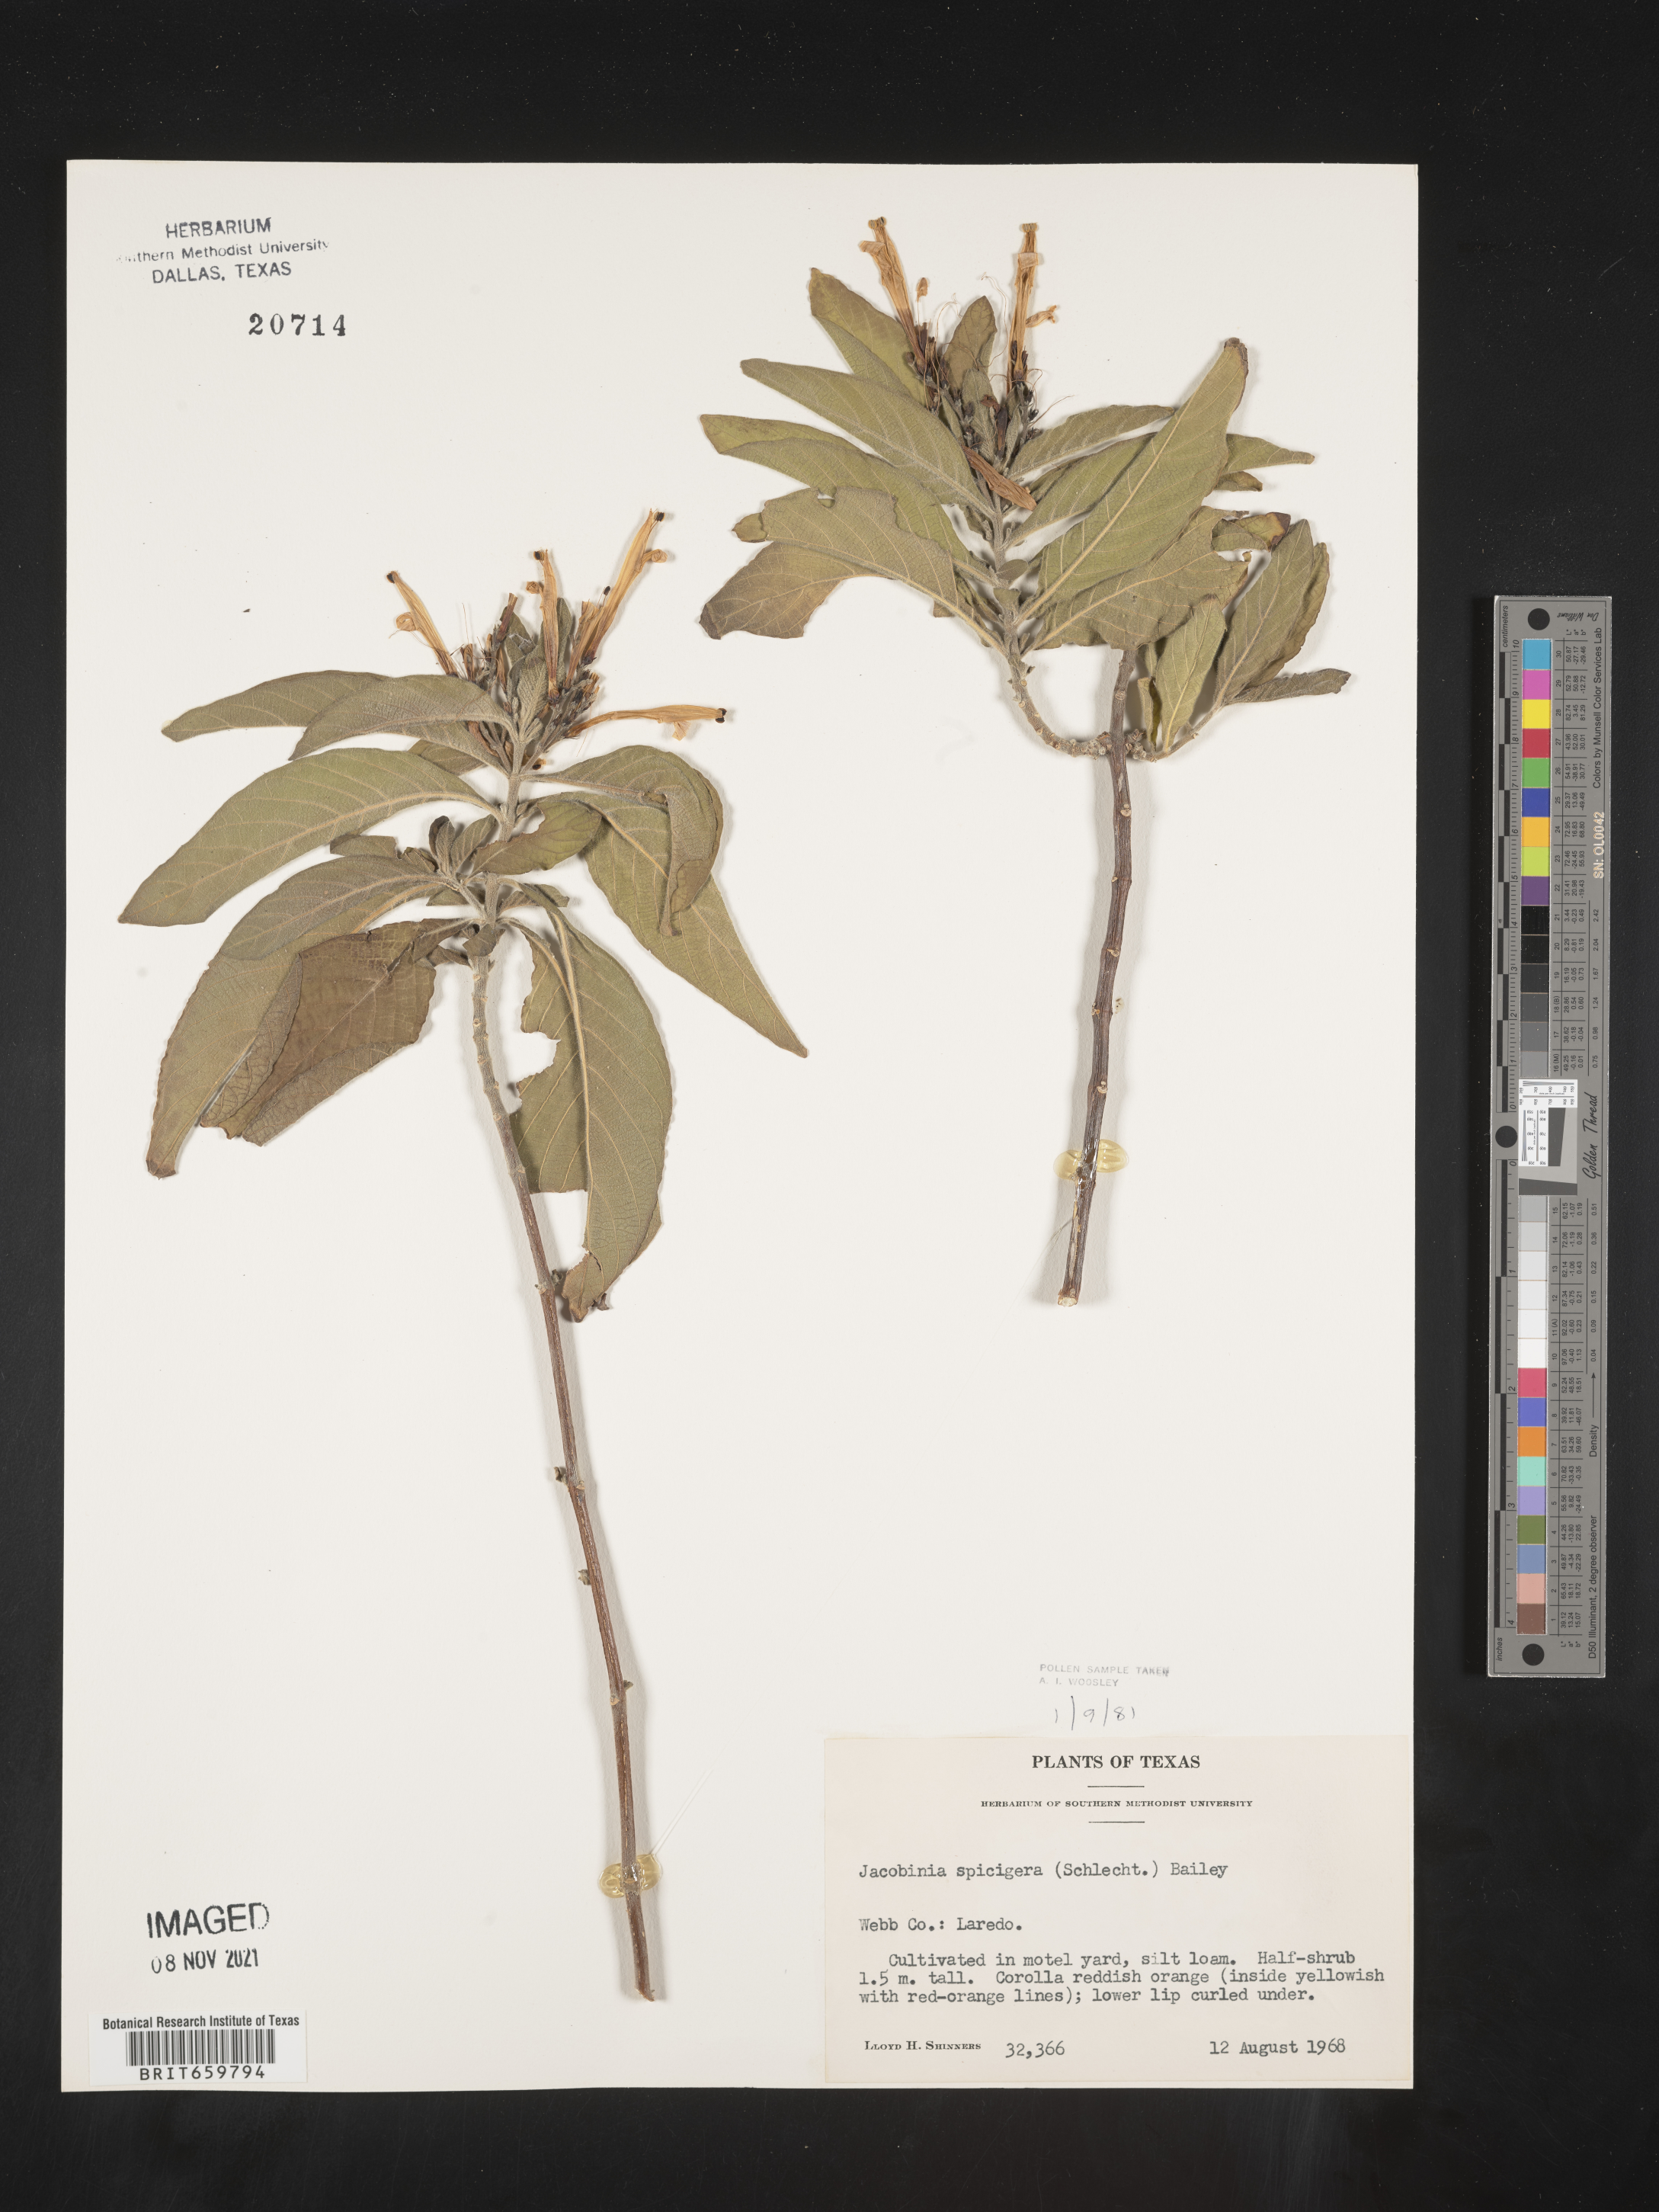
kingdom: Plantae
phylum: Tracheophyta
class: Magnoliopsida
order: Lamiales
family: Acanthaceae
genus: Justicia
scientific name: Justicia
